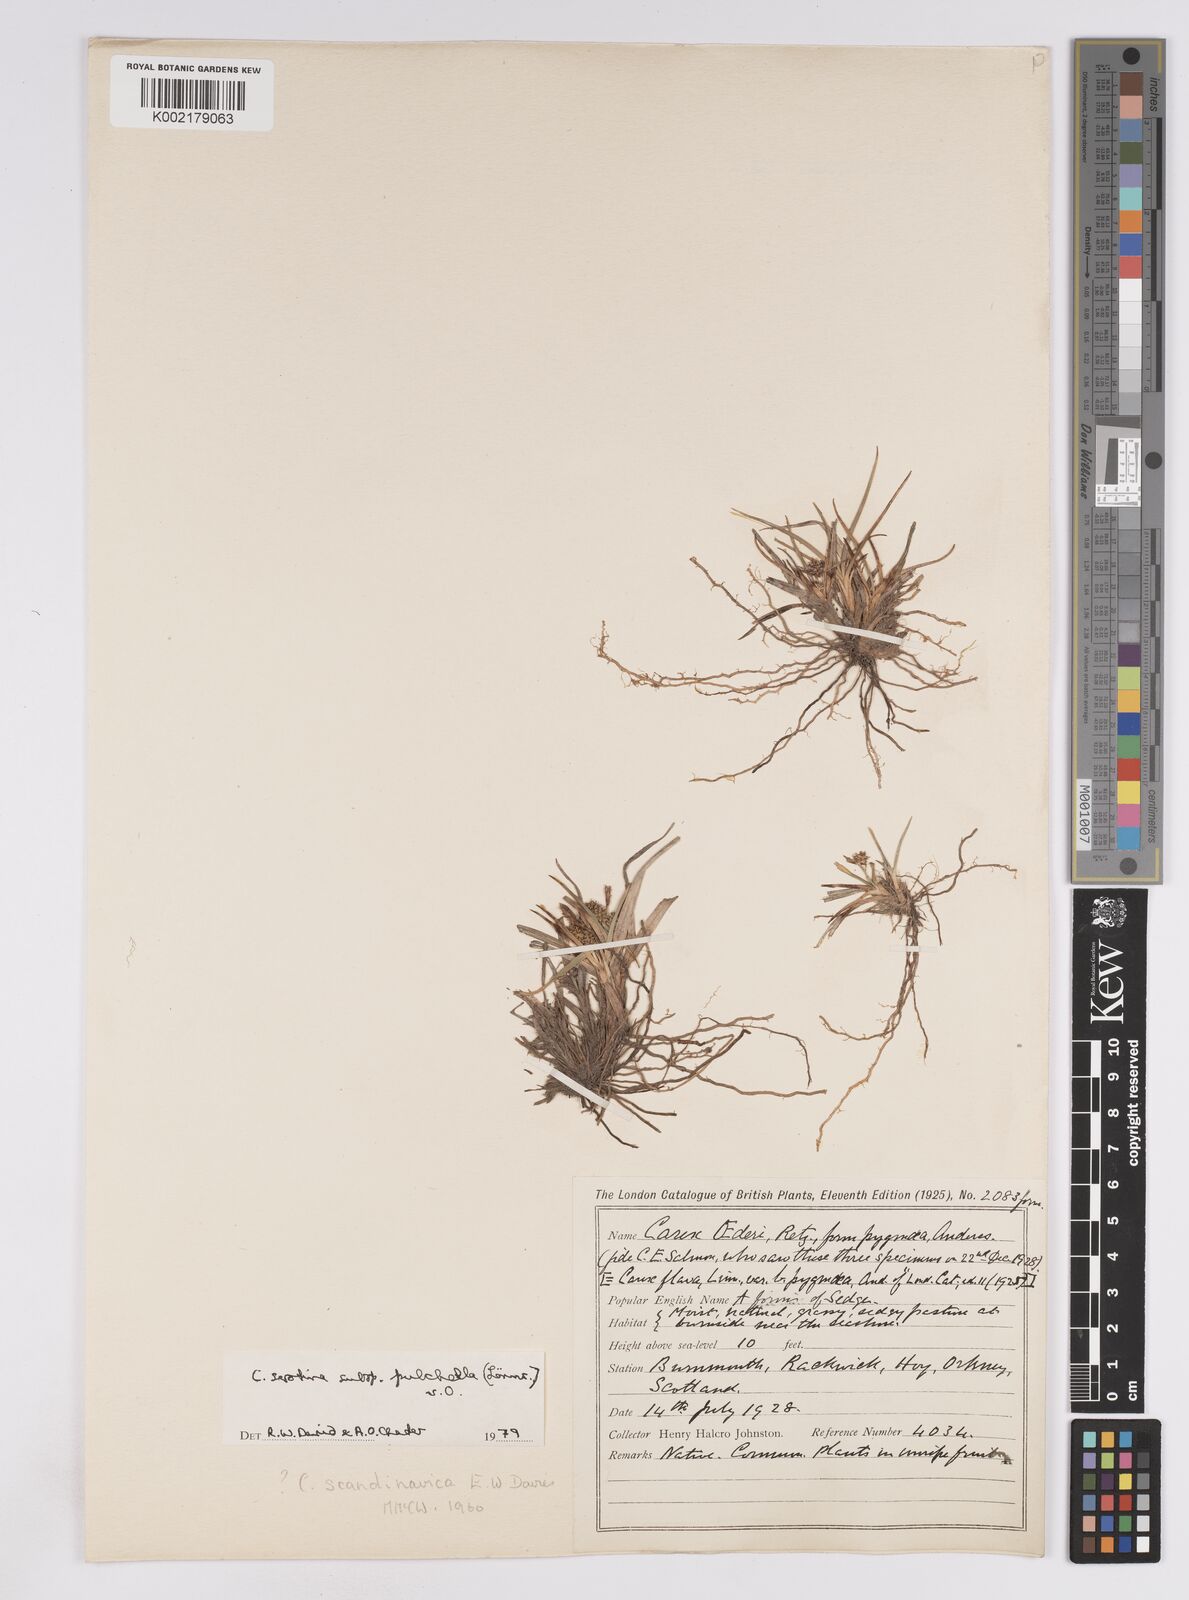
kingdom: Plantae
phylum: Tracheophyta
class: Liliopsida
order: Poales
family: Cyperaceae
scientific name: Cyperaceae
